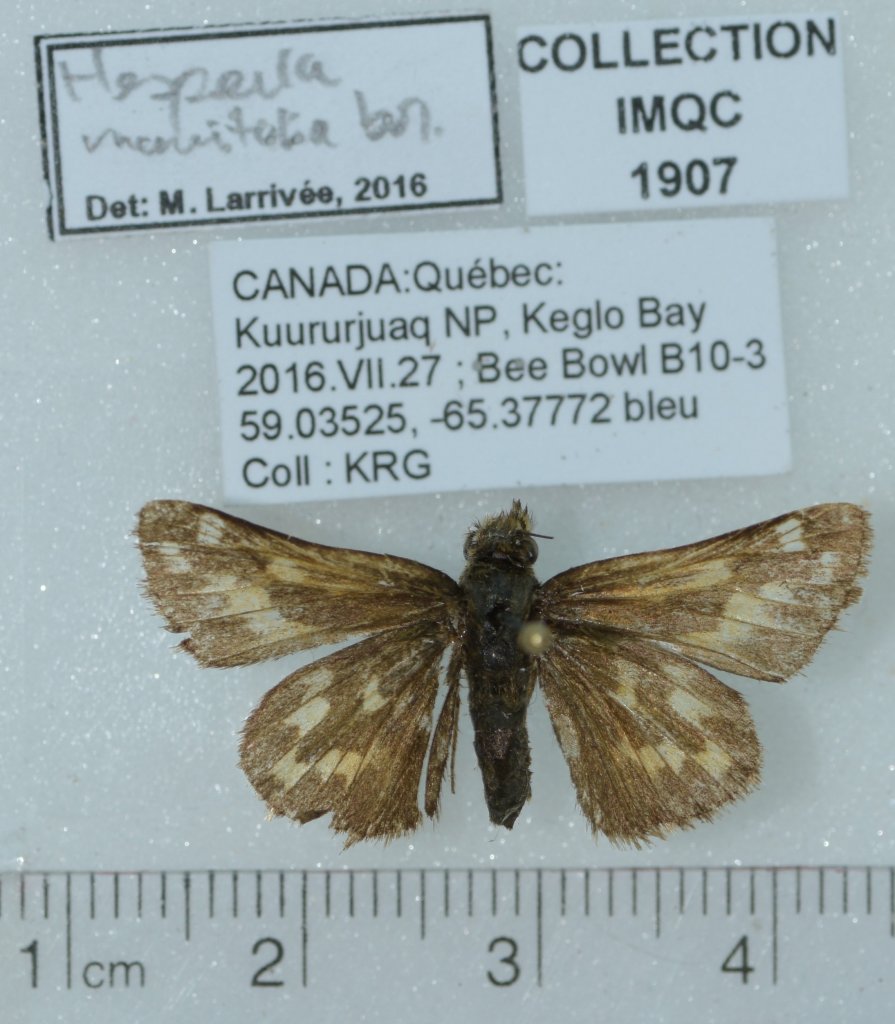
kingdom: Animalia
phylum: Arthropoda
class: Insecta
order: Lepidoptera
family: Hesperiidae
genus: Hesperia
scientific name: Hesperia comma
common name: Common Branded Skipper
